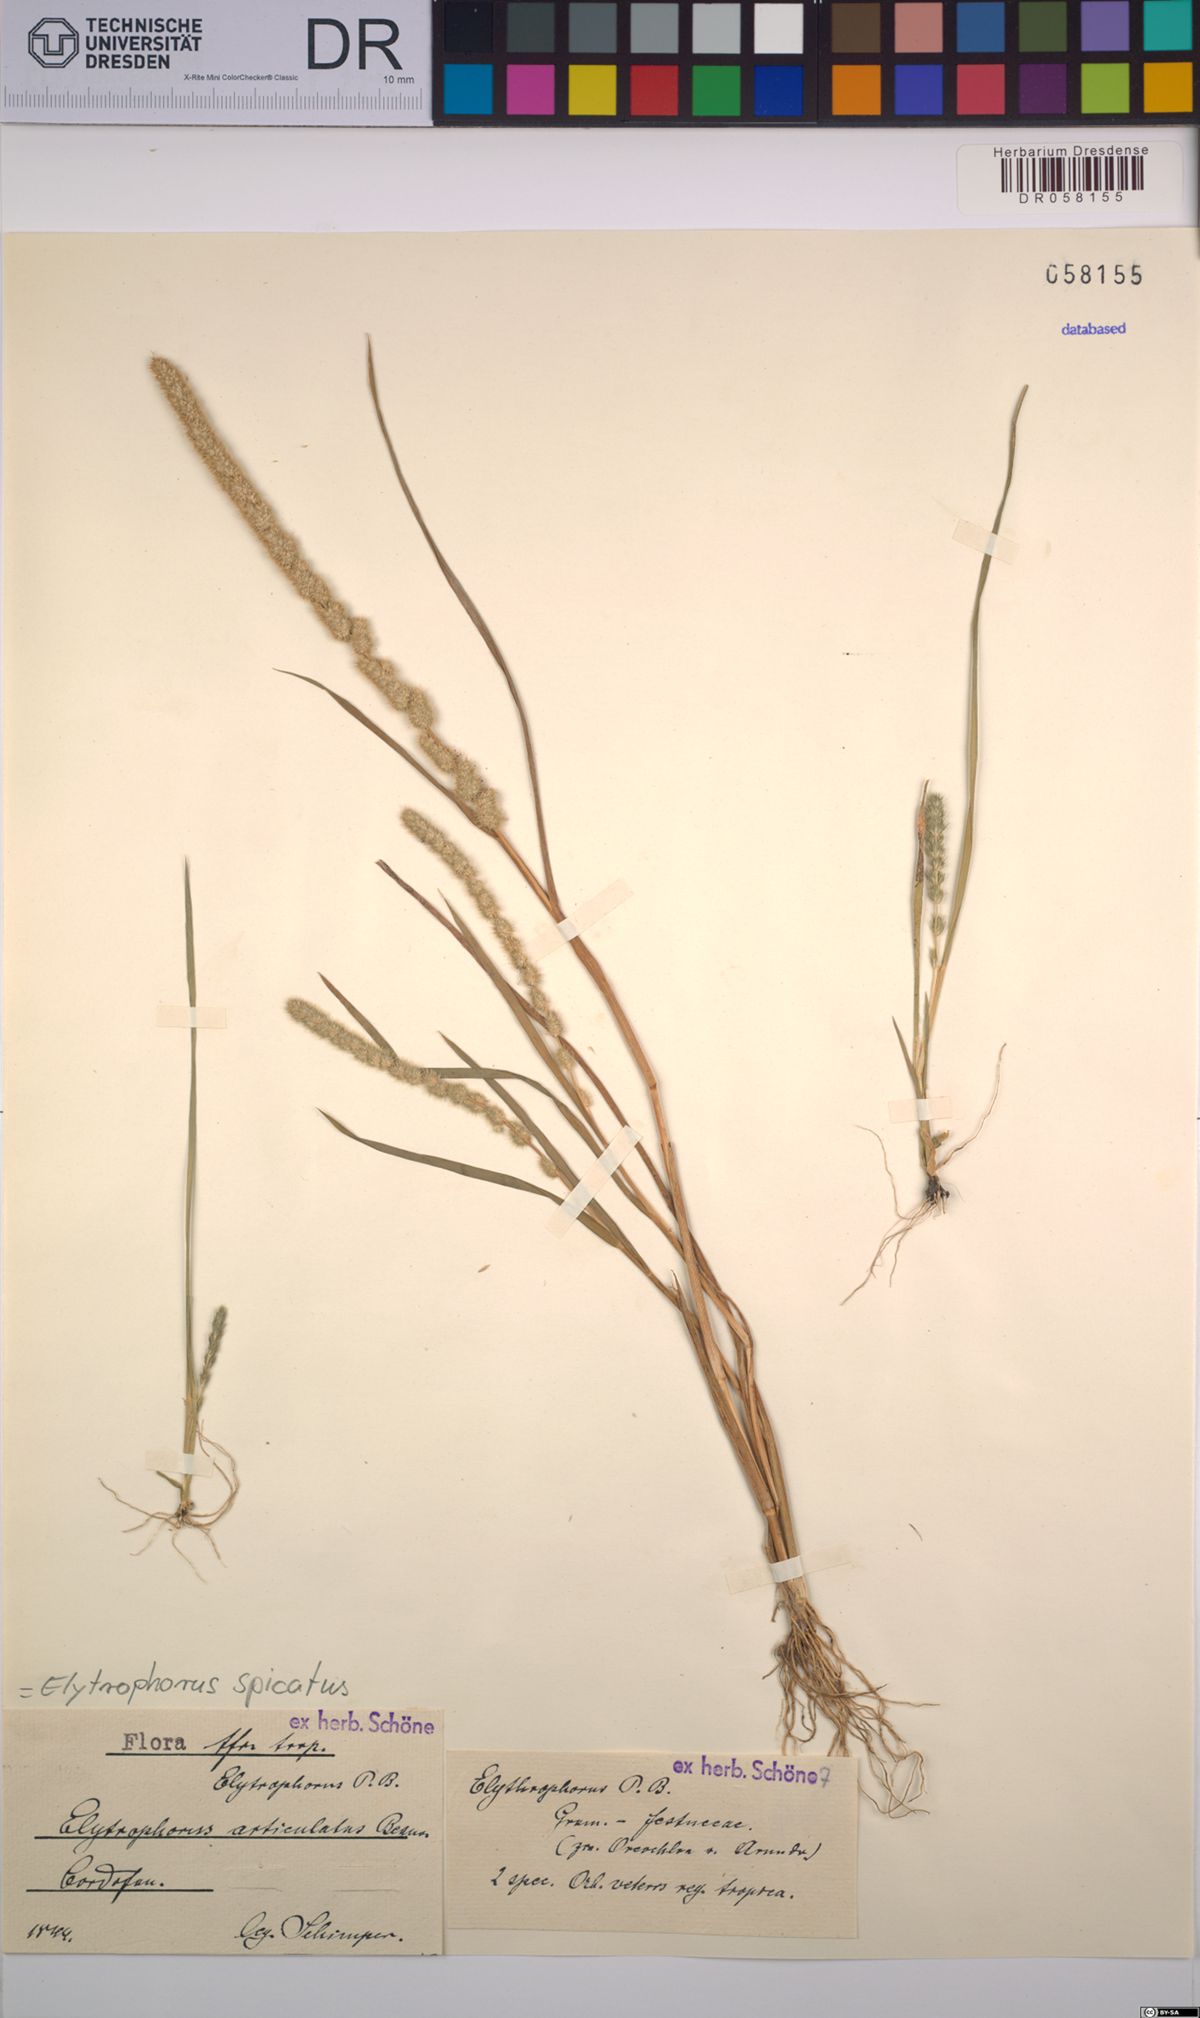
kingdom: Plantae
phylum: Tracheophyta
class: Liliopsida
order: Poales
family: Poaceae
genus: Elytrophorus
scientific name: Elytrophorus spicatus
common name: Spike grass
